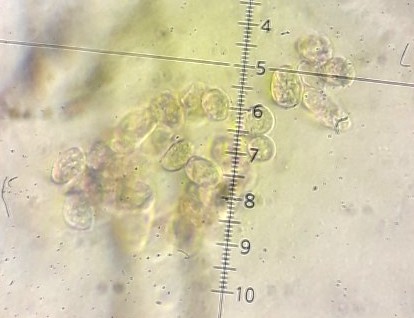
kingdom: Fungi
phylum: Basidiomycota
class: Agaricomycetes
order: Cantharellales
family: Hydnaceae
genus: Hydnum
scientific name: Hydnum ibericum
